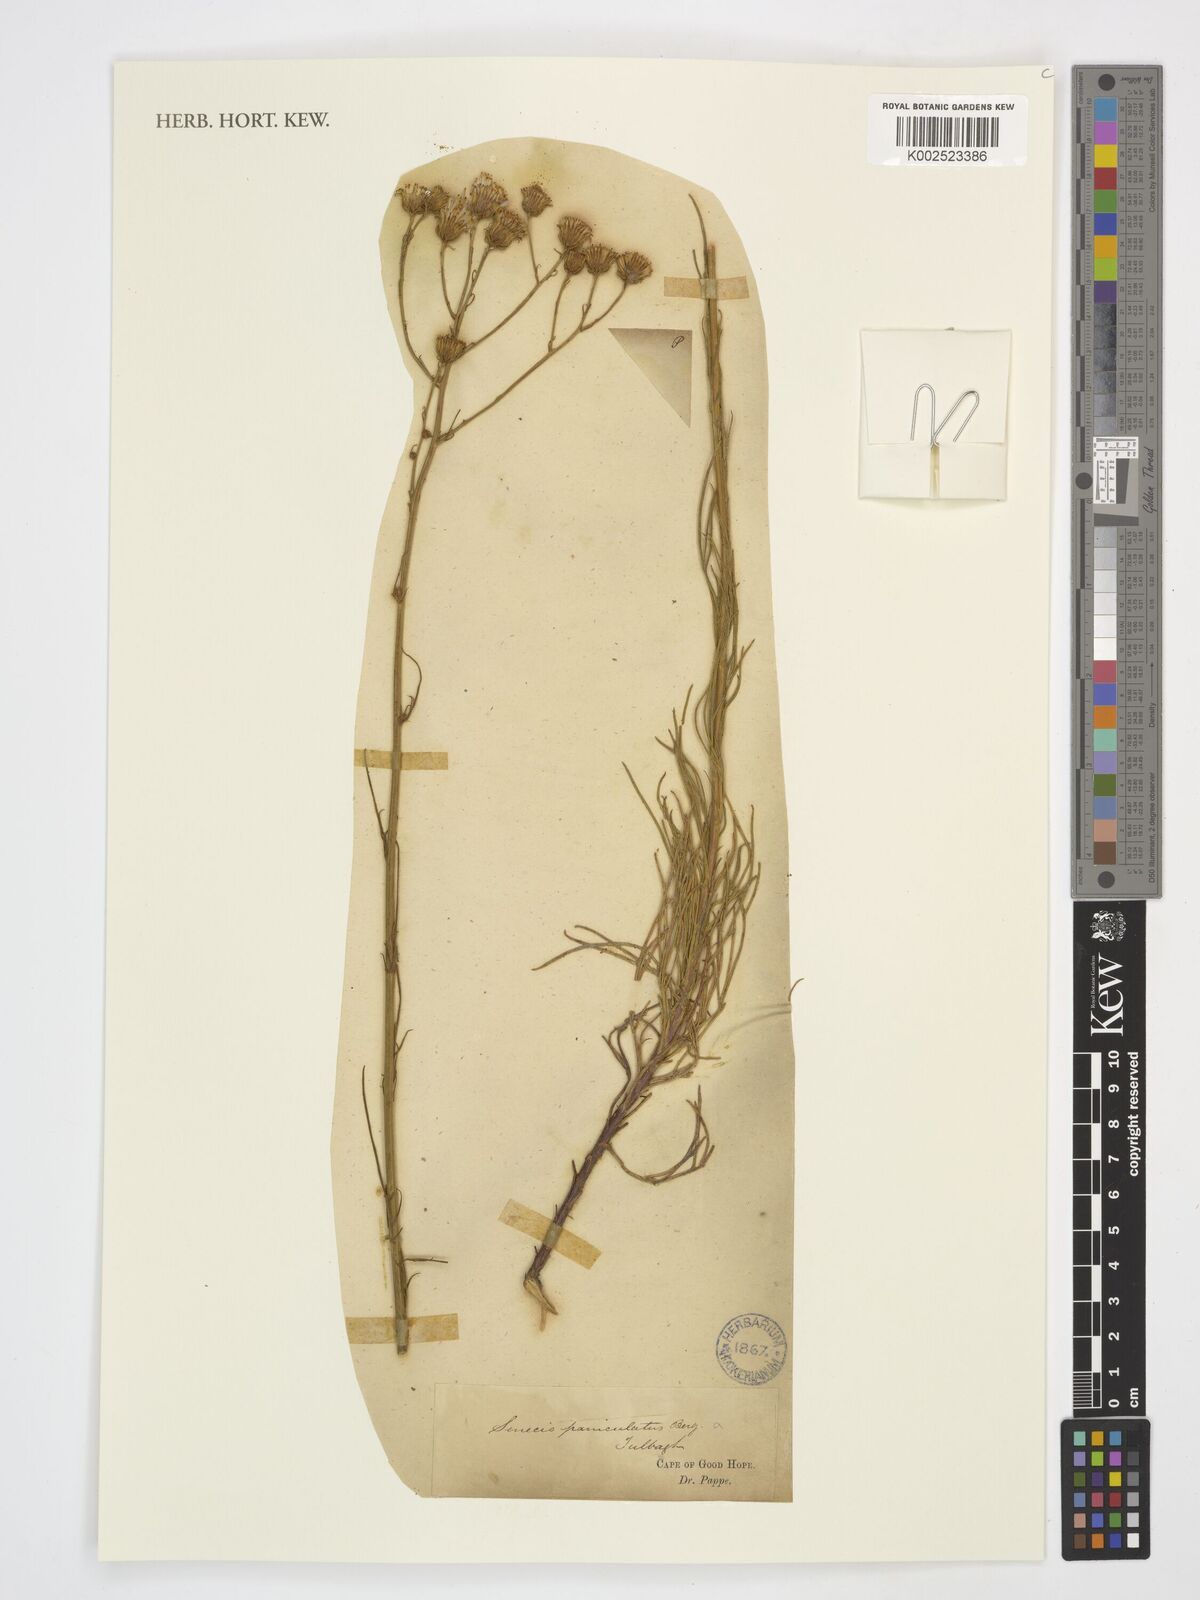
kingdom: Plantae
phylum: Tracheophyta
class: Magnoliopsida
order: Asterales
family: Asteraceae
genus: Senecio
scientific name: Senecio paniculatus
